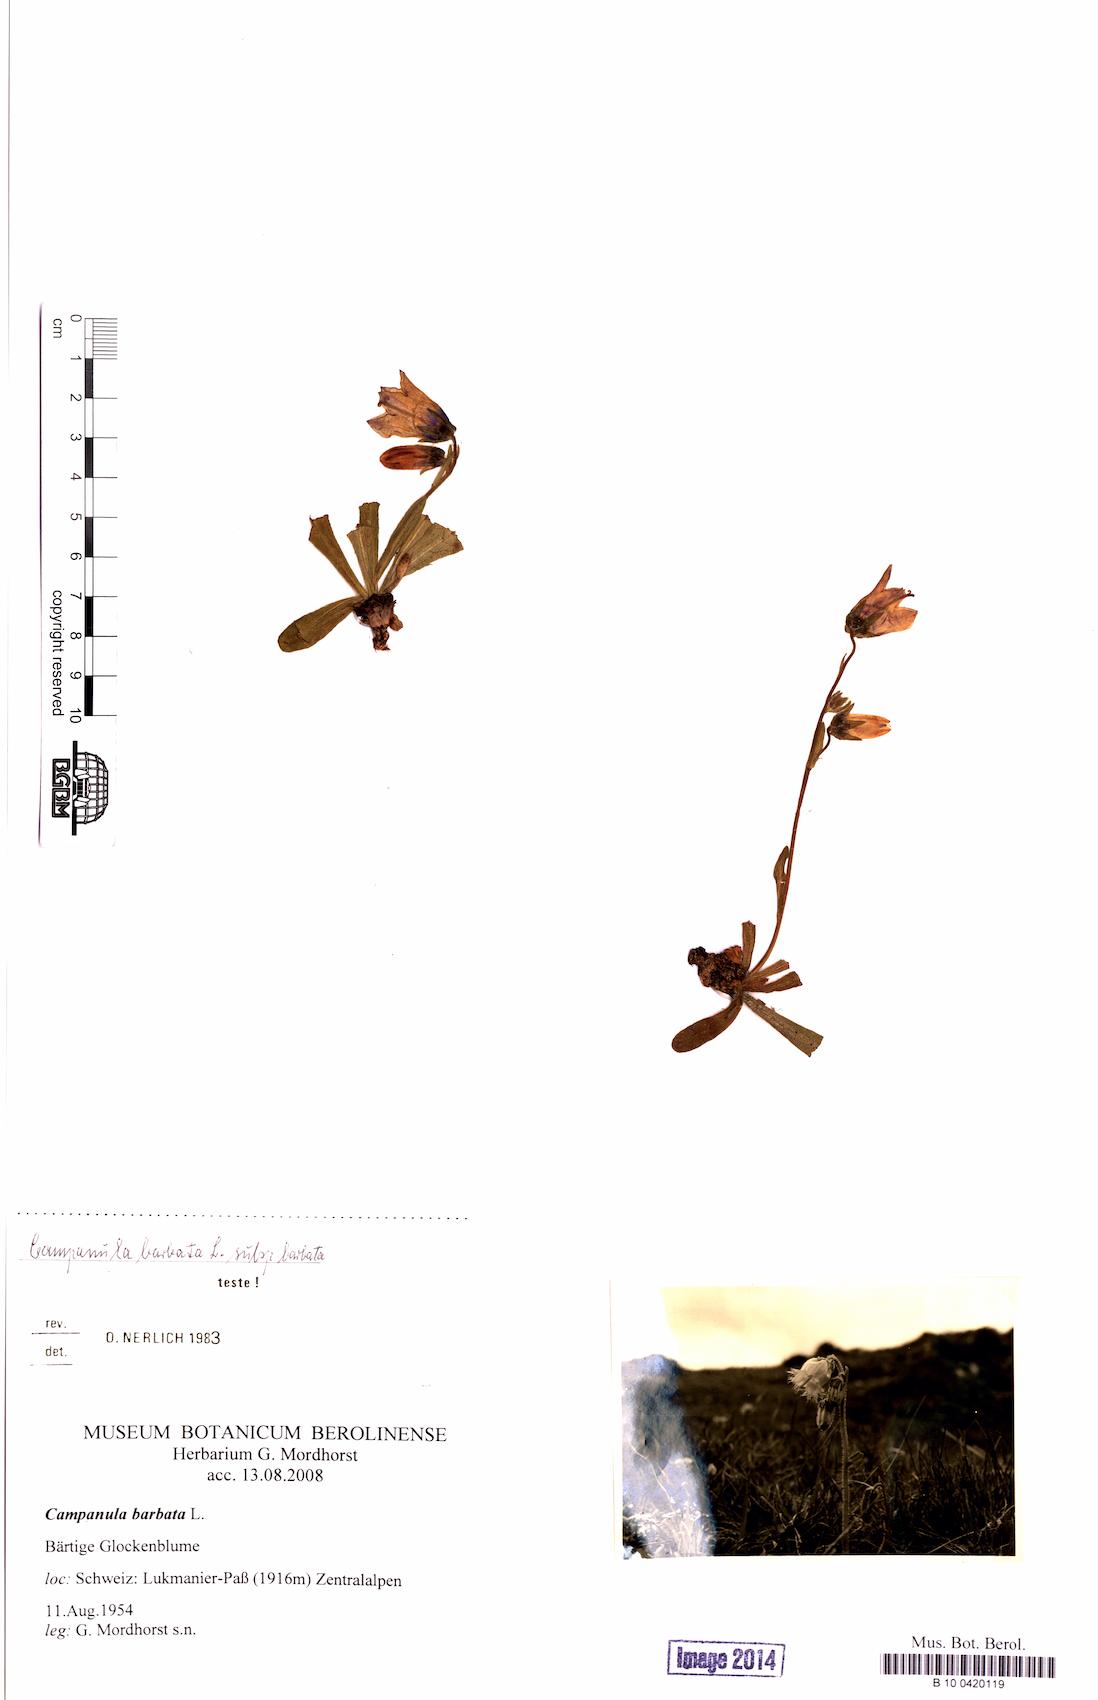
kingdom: Plantae
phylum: Tracheophyta
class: Magnoliopsida
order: Asterales
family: Campanulaceae
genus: Campanula
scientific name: Campanula barbata
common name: Bearded bellflower
